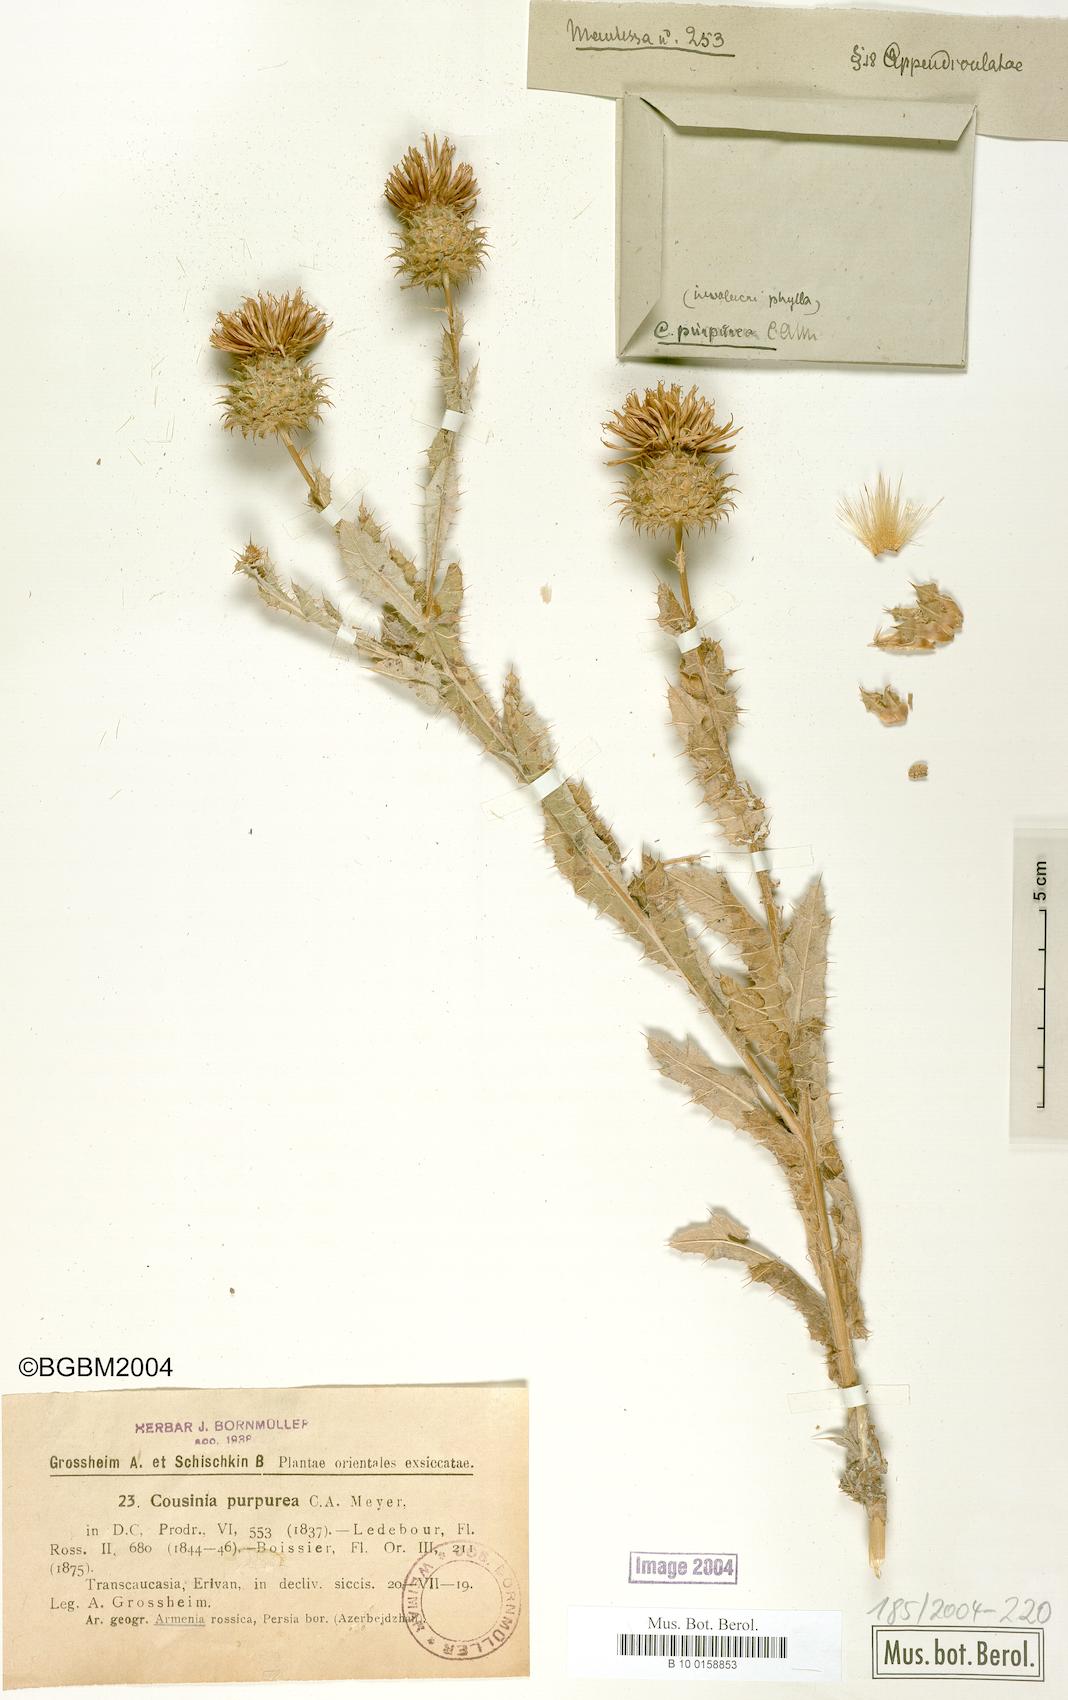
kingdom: Plantae
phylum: Tracheophyta
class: Magnoliopsida
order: Asterales
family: Asteraceae
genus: Cousinia
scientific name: Cousinia purpurea
